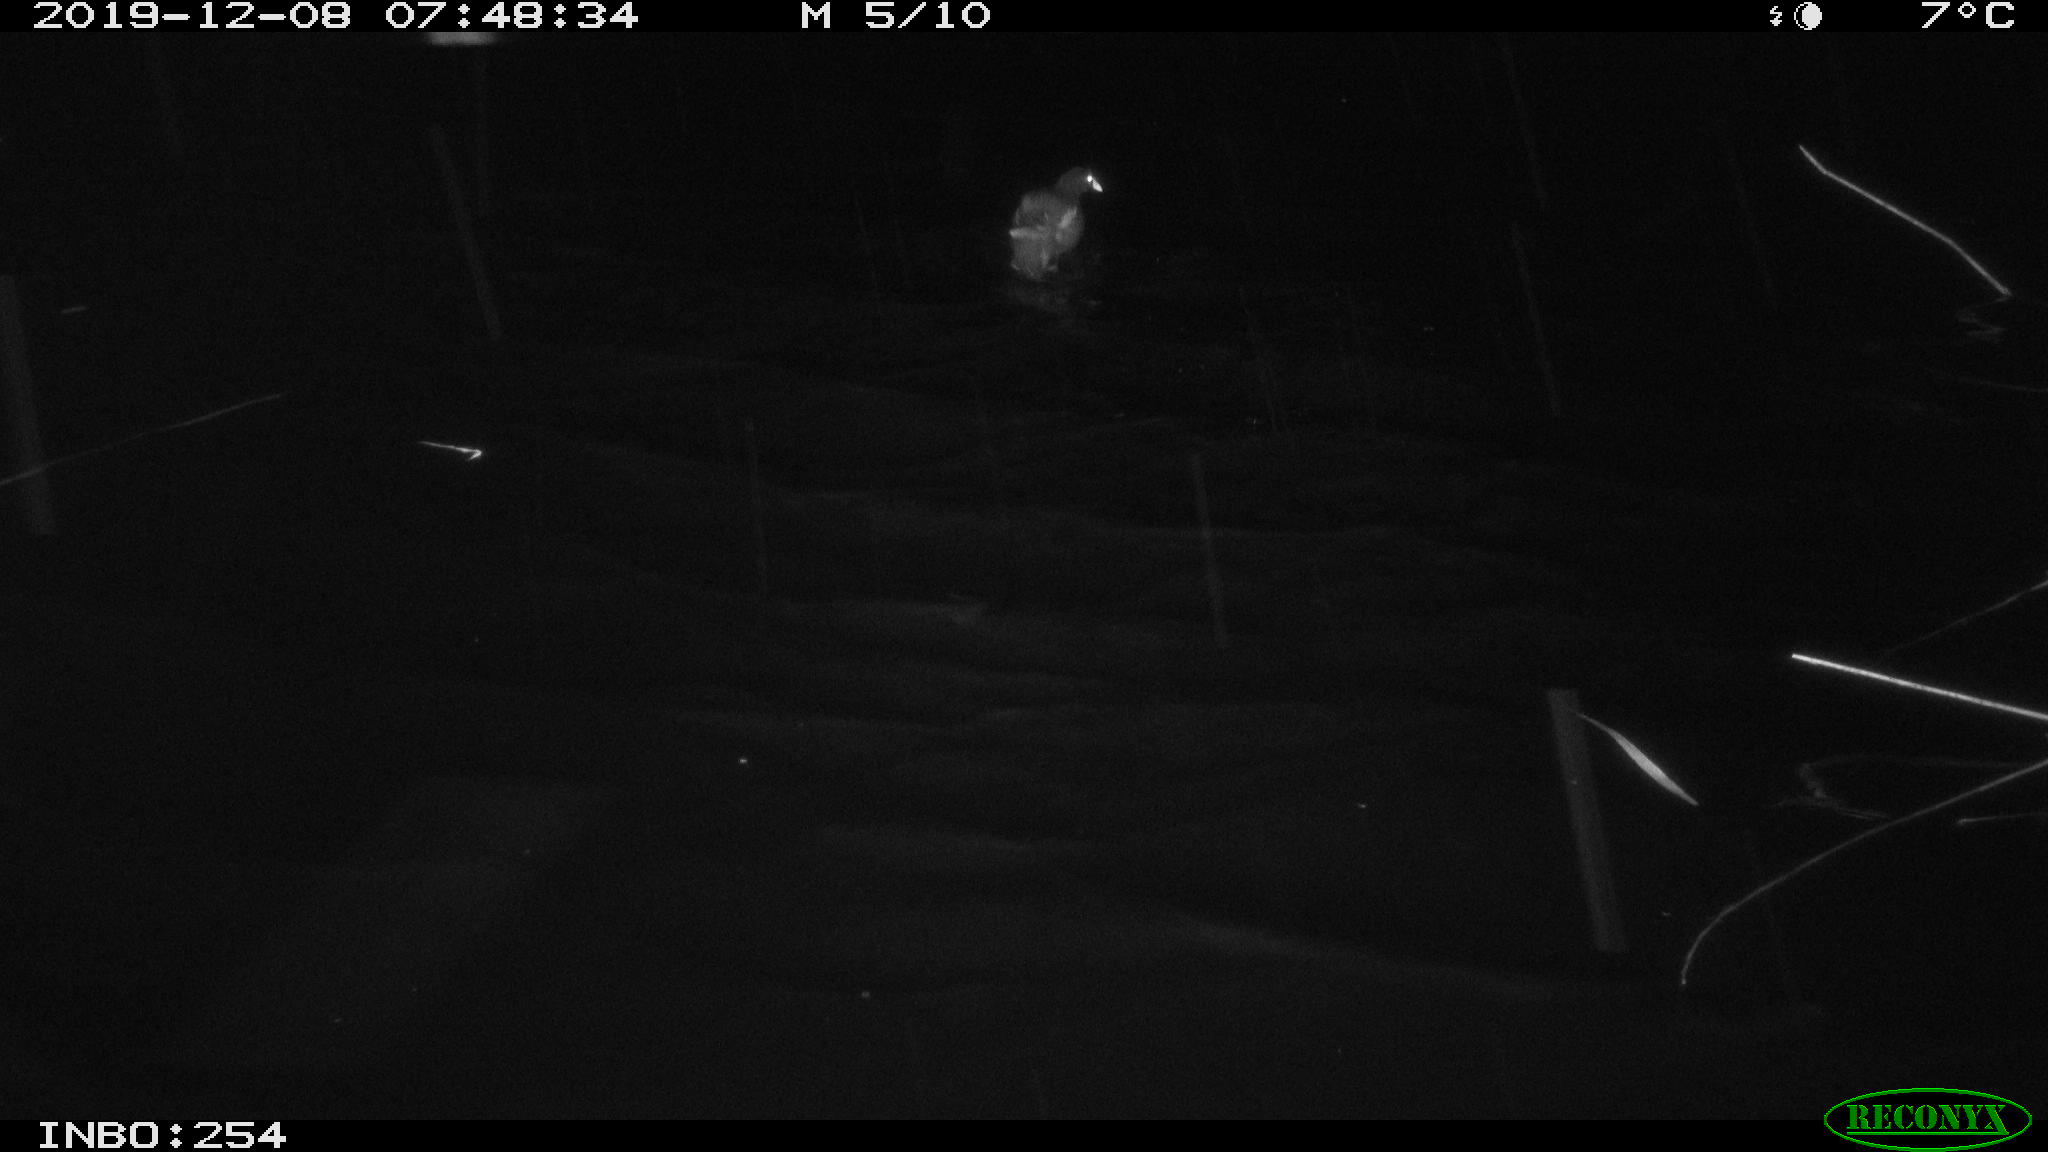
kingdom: Animalia
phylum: Chordata
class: Aves
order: Gruiformes
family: Rallidae
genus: Gallinula
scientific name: Gallinula chloropus
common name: Common moorhen
